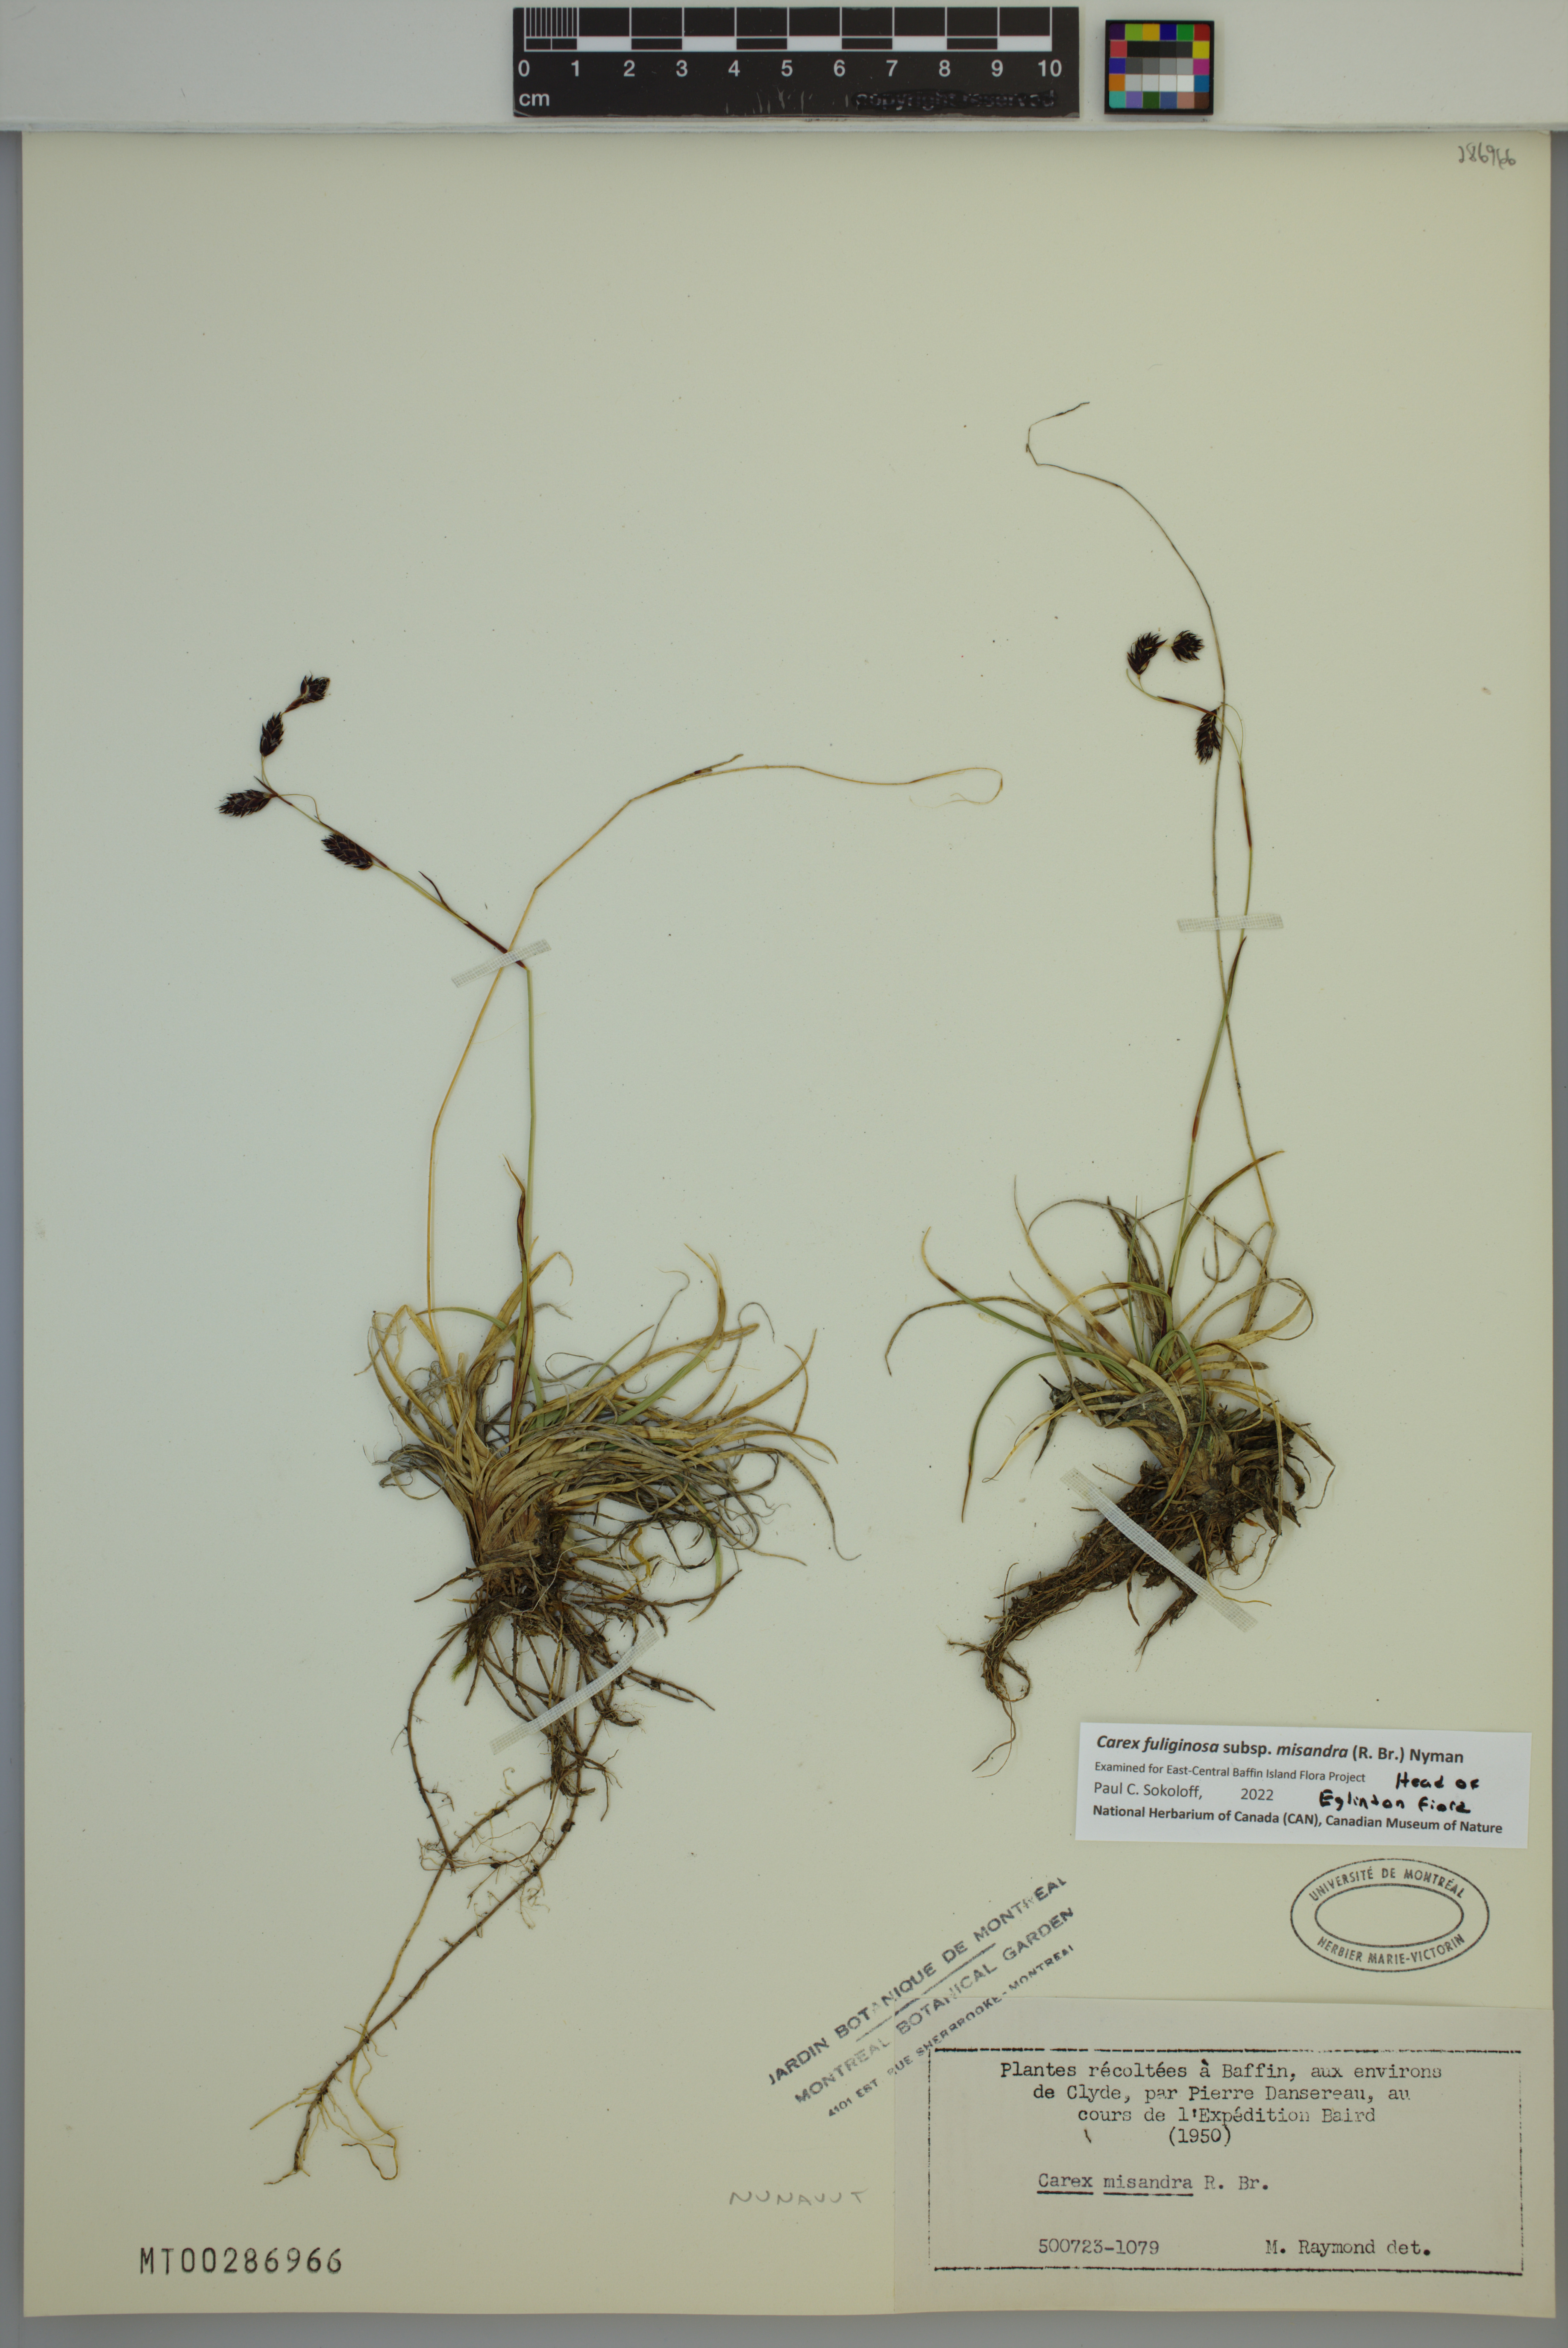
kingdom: Plantae
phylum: Tracheophyta
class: Liliopsida
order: Poales
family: Cyperaceae
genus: Carex
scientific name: Carex fuliginosa
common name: Few-flowered sedge
